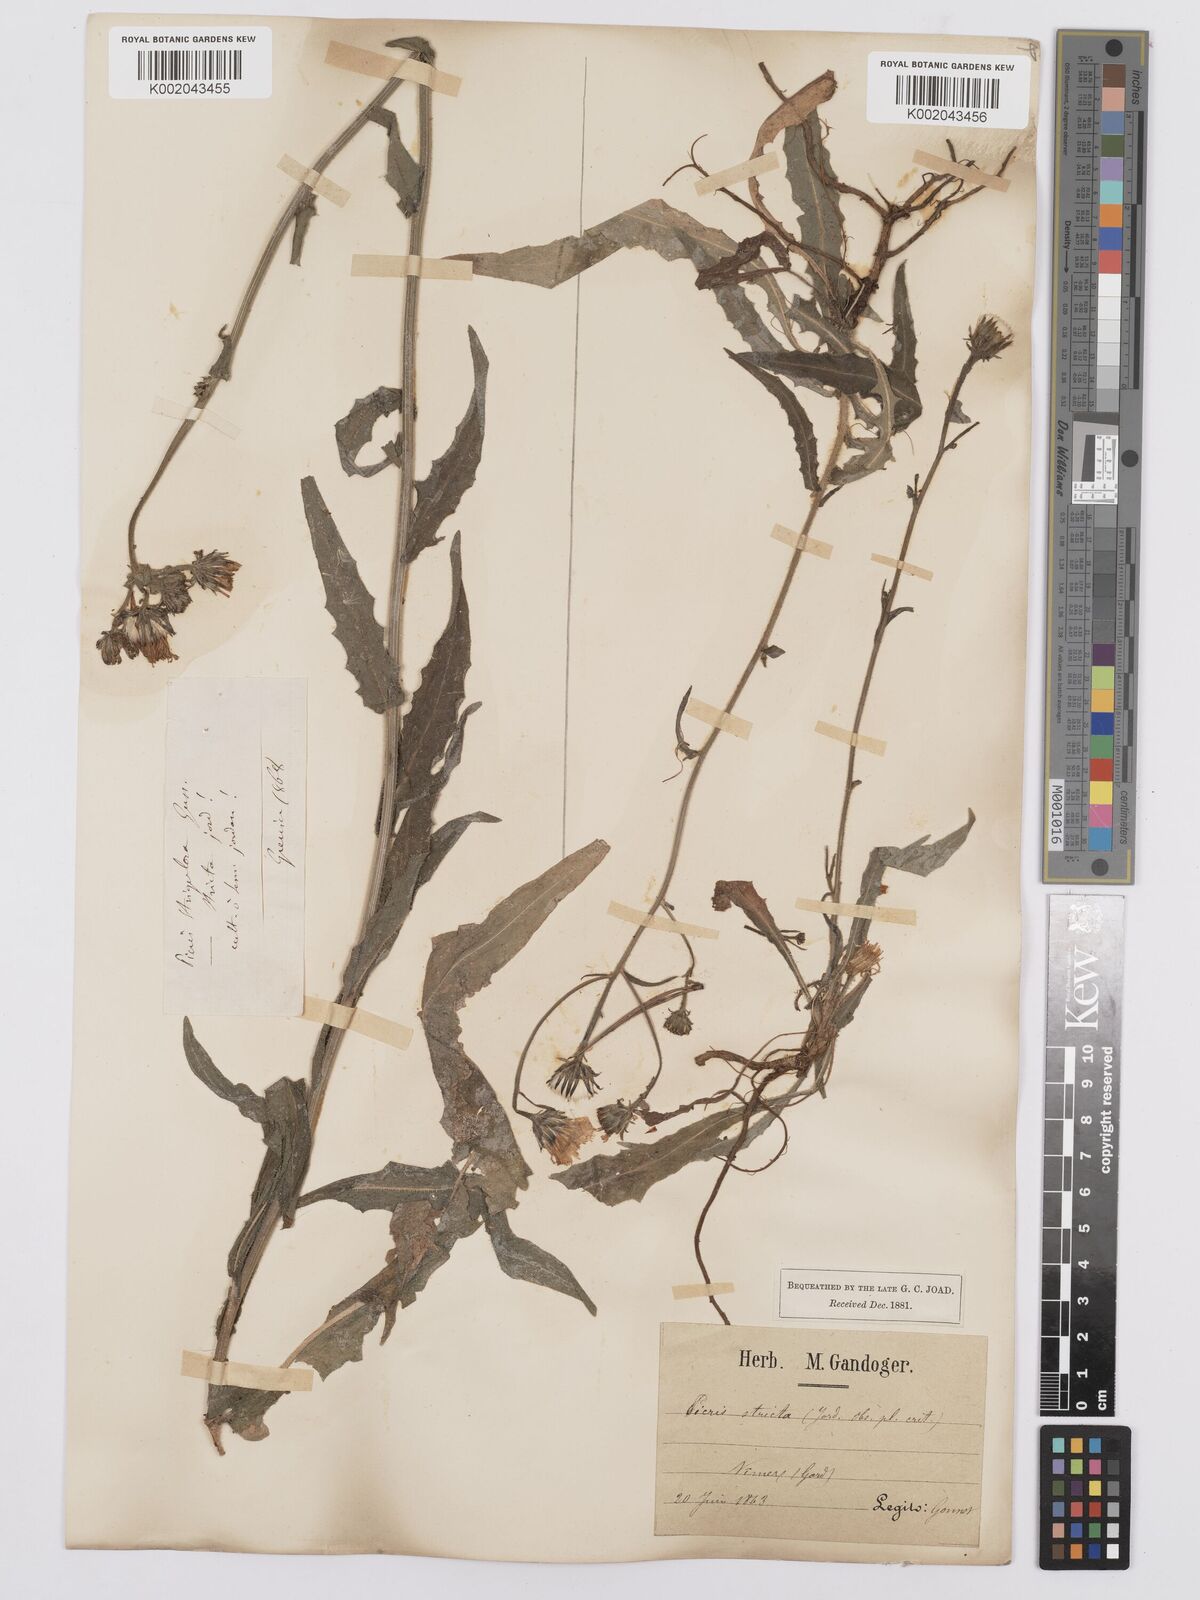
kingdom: Plantae
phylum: Tracheophyta
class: Magnoliopsida
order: Asterales
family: Asteraceae
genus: Picris
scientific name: Picris hieracioides
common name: Hawkweed oxtongue
